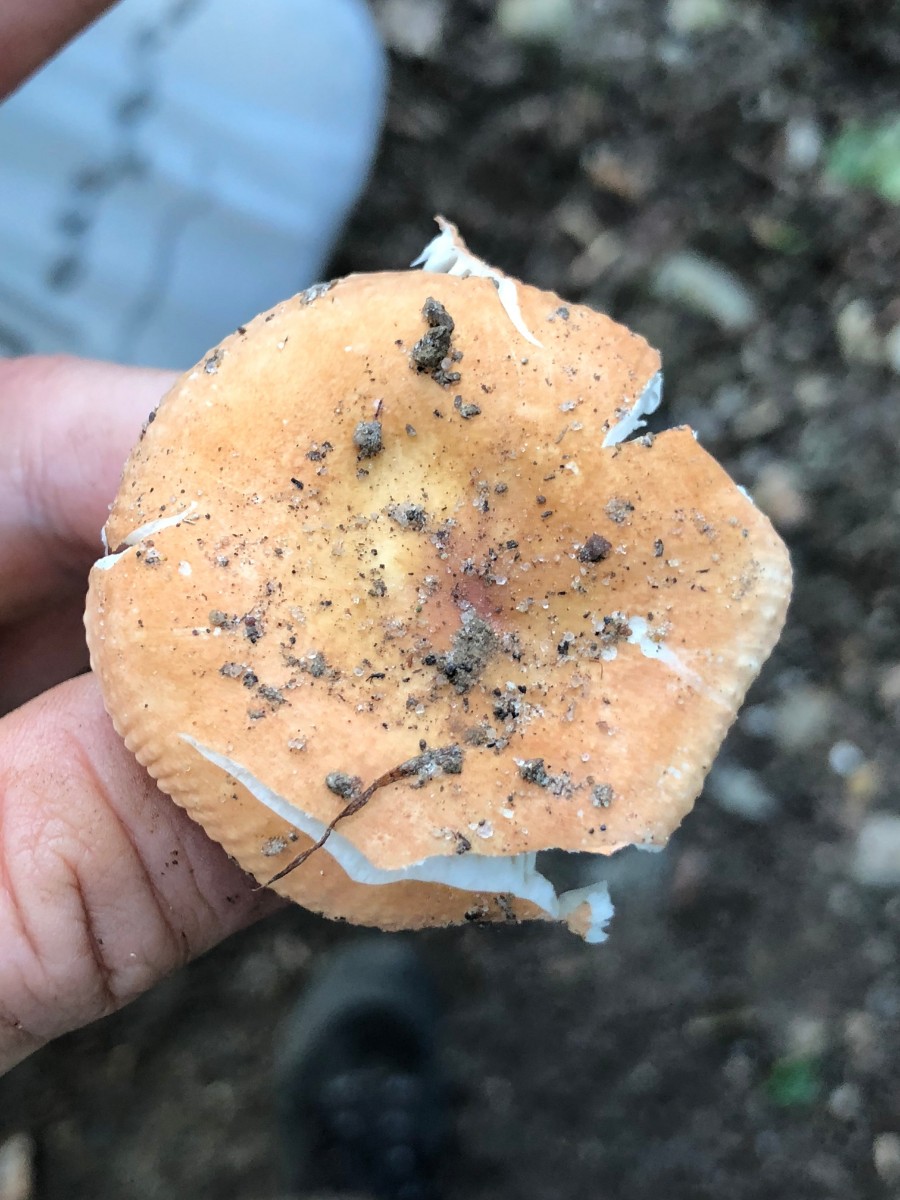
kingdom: Fungi
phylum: Basidiomycota
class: Agaricomycetes
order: Russulales
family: Russulaceae
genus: Russula
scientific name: Russula
